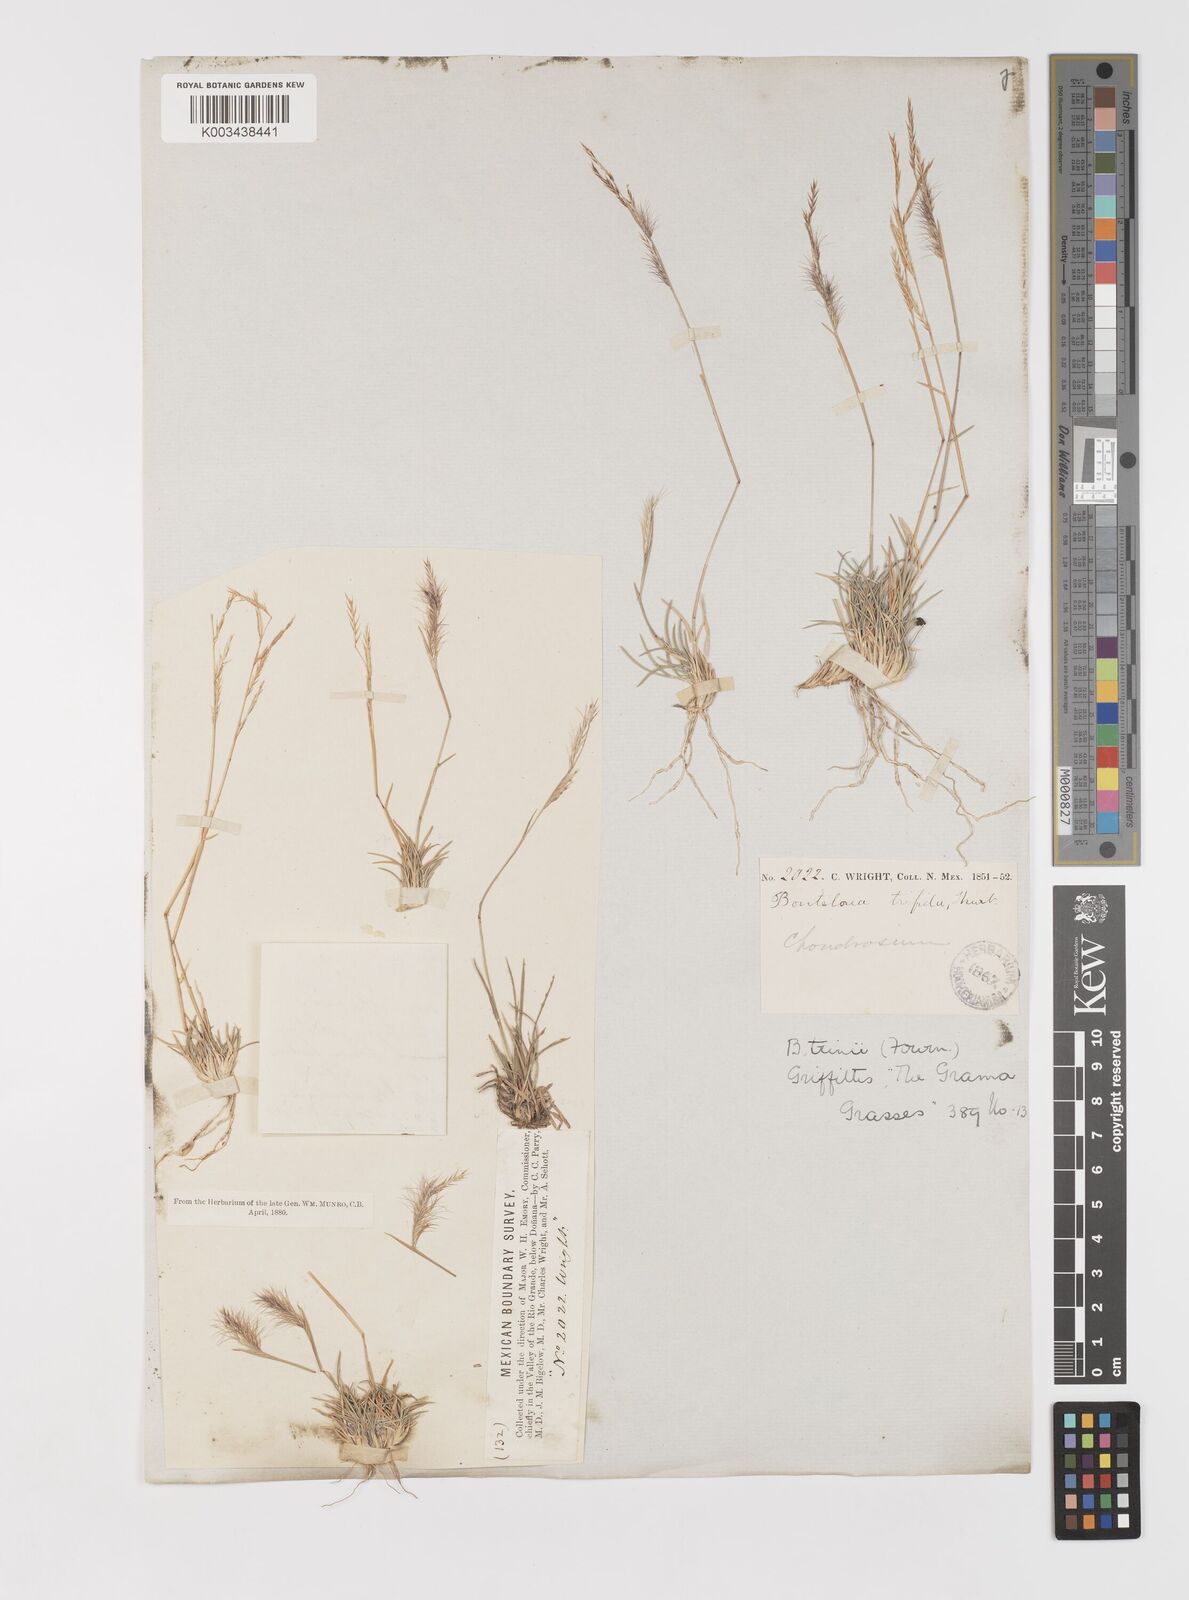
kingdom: Plantae
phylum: Tracheophyta
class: Liliopsida
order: Poales
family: Poaceae
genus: Bouteloua
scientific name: Bouteloua trifida
